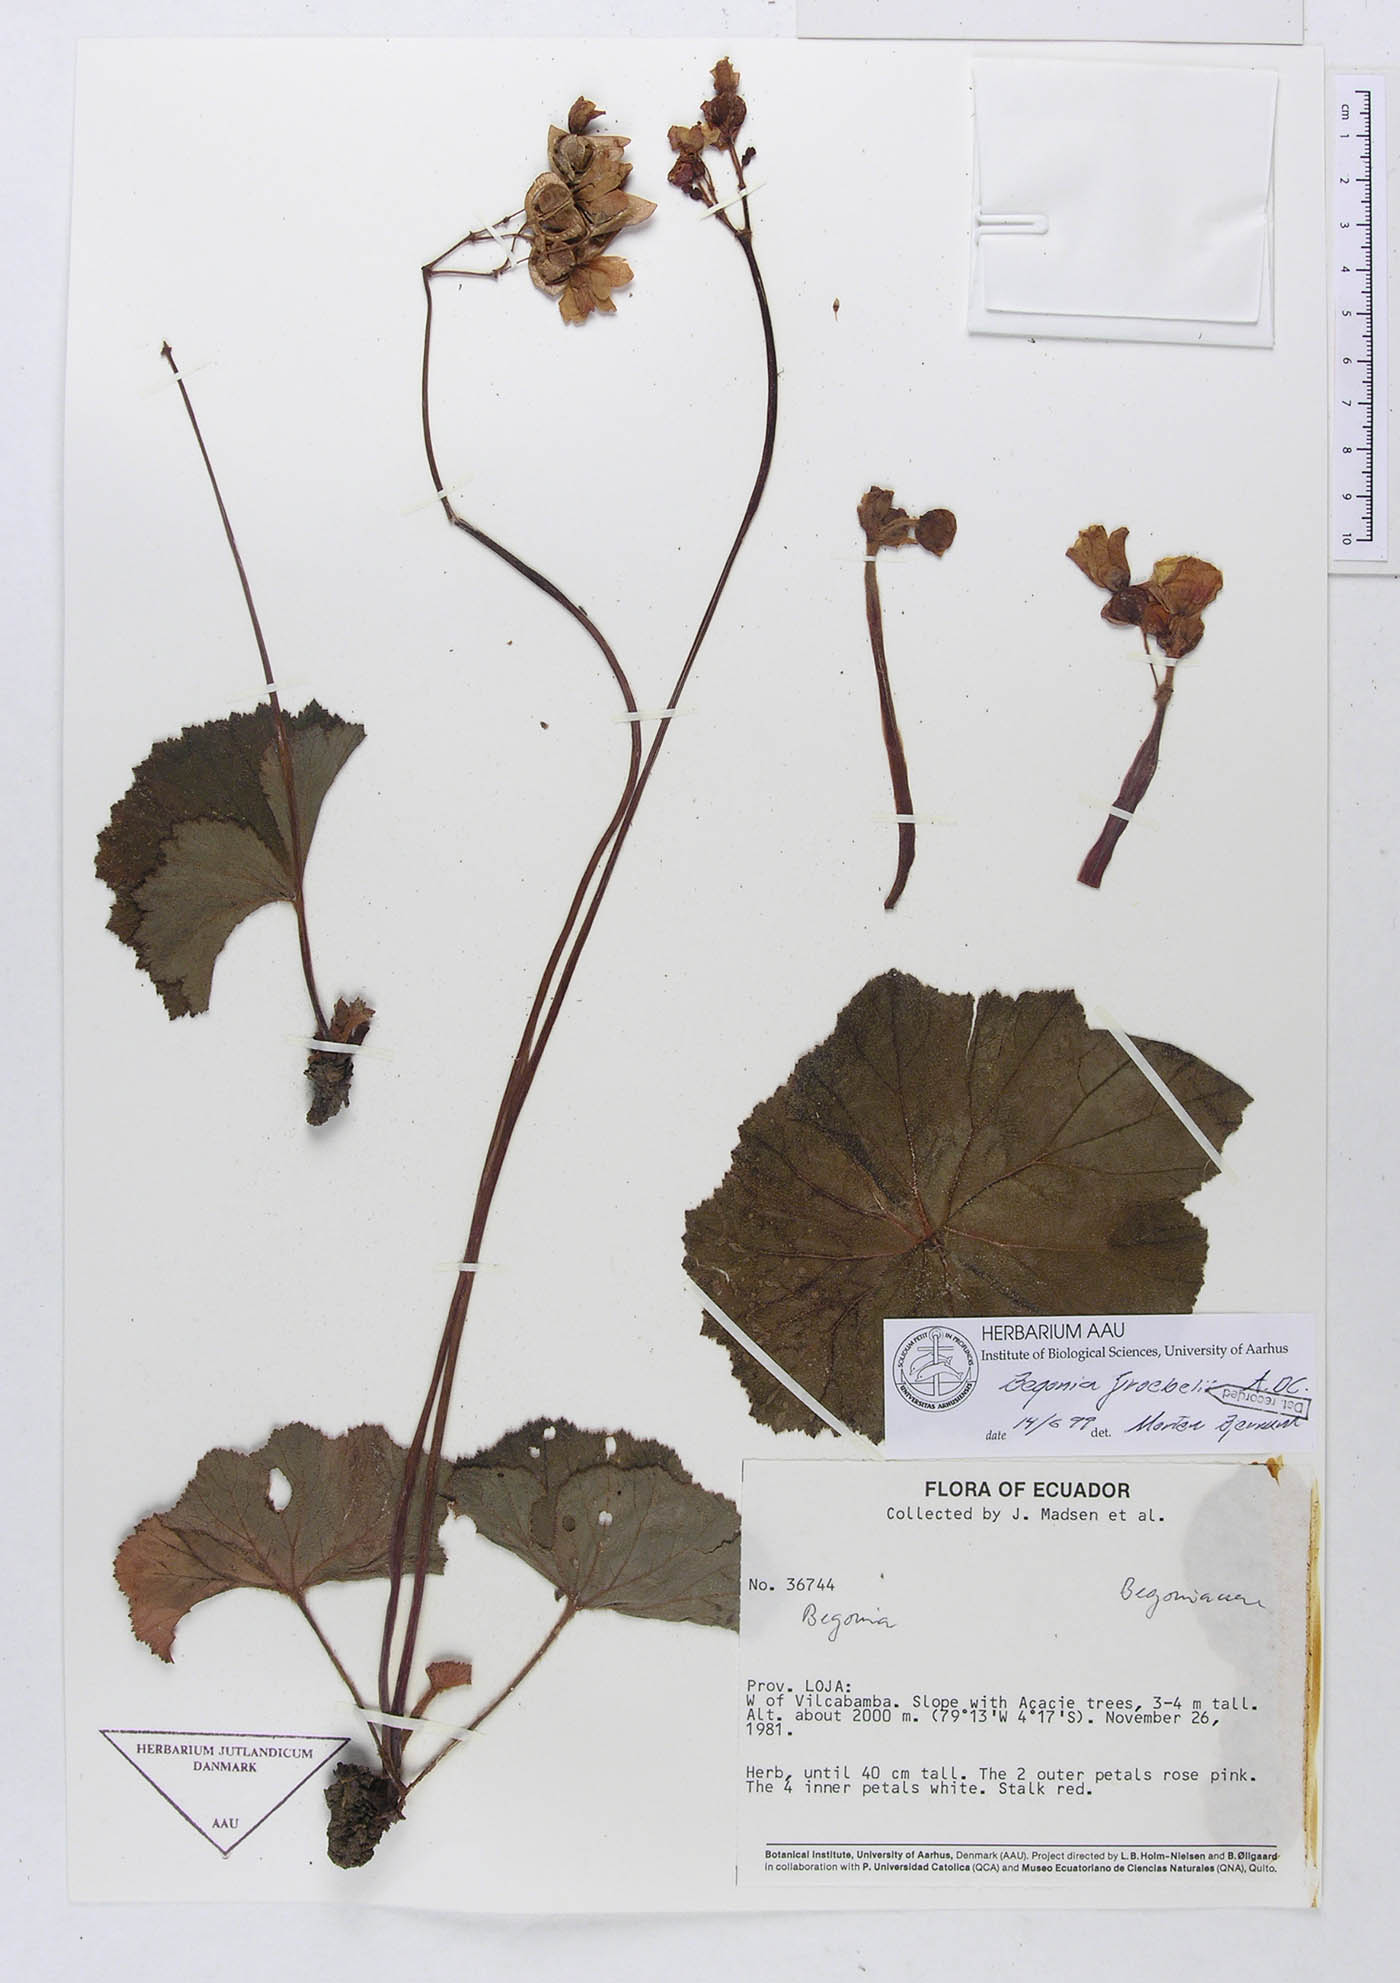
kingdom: Plantae
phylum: Tracheophyta
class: Magnoliopsida
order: Cucurbitales
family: Begoniaceae
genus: Begonia
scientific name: Begonia parcifolia
